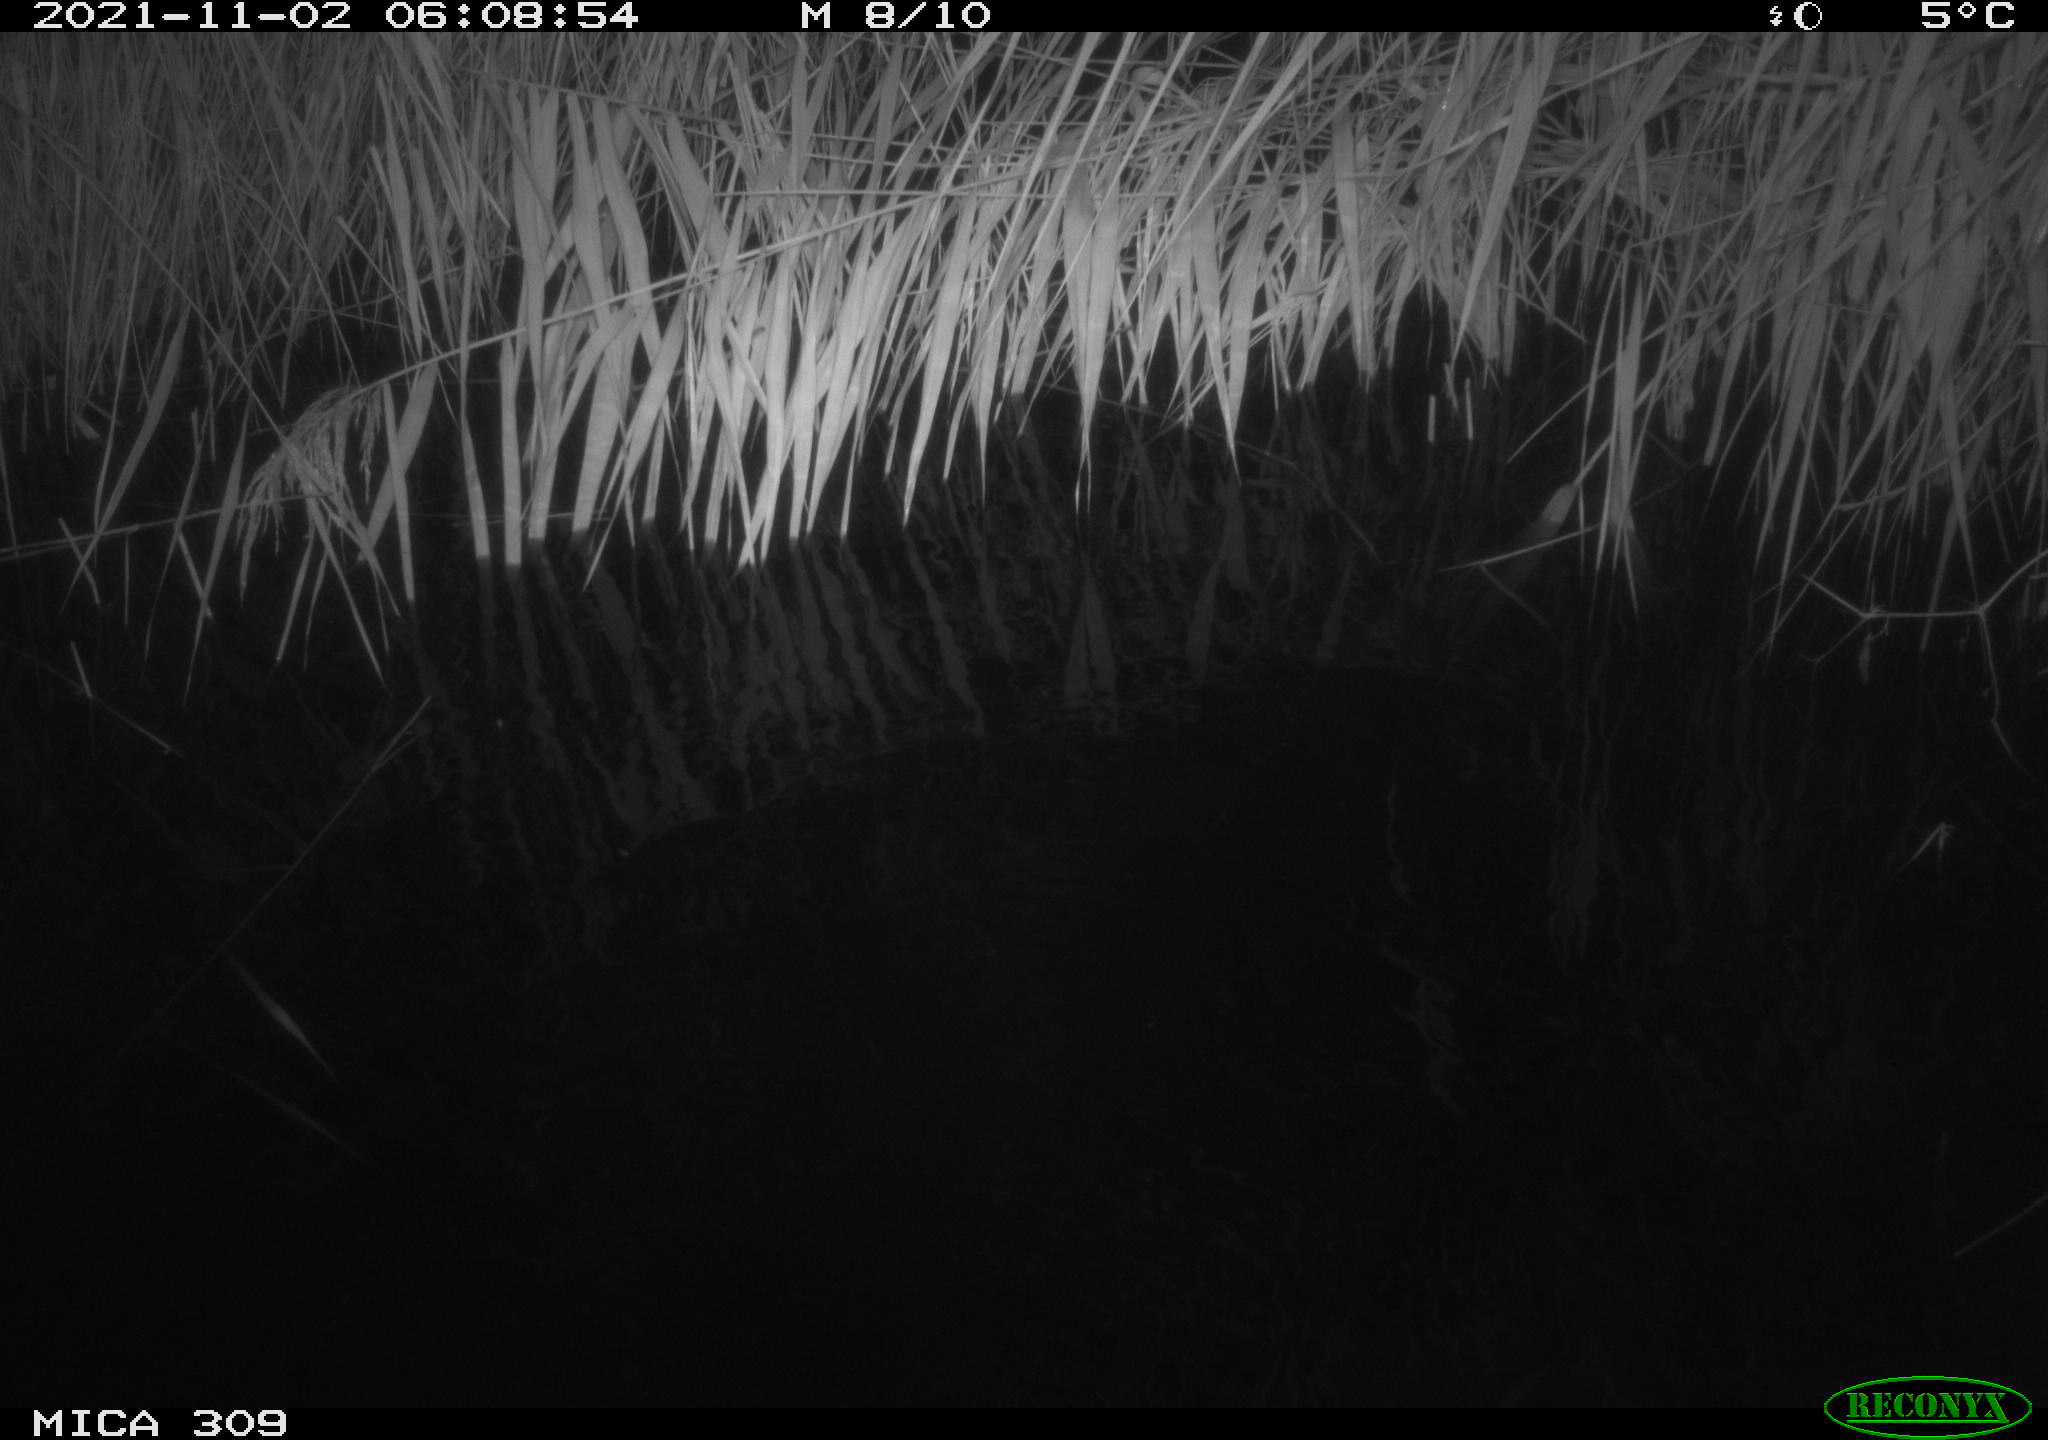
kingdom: Animalia
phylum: Chordata
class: Mammalia
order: Rodentia
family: Muridae
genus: Rattus
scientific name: Rattus norvegicus
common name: Brown rat
